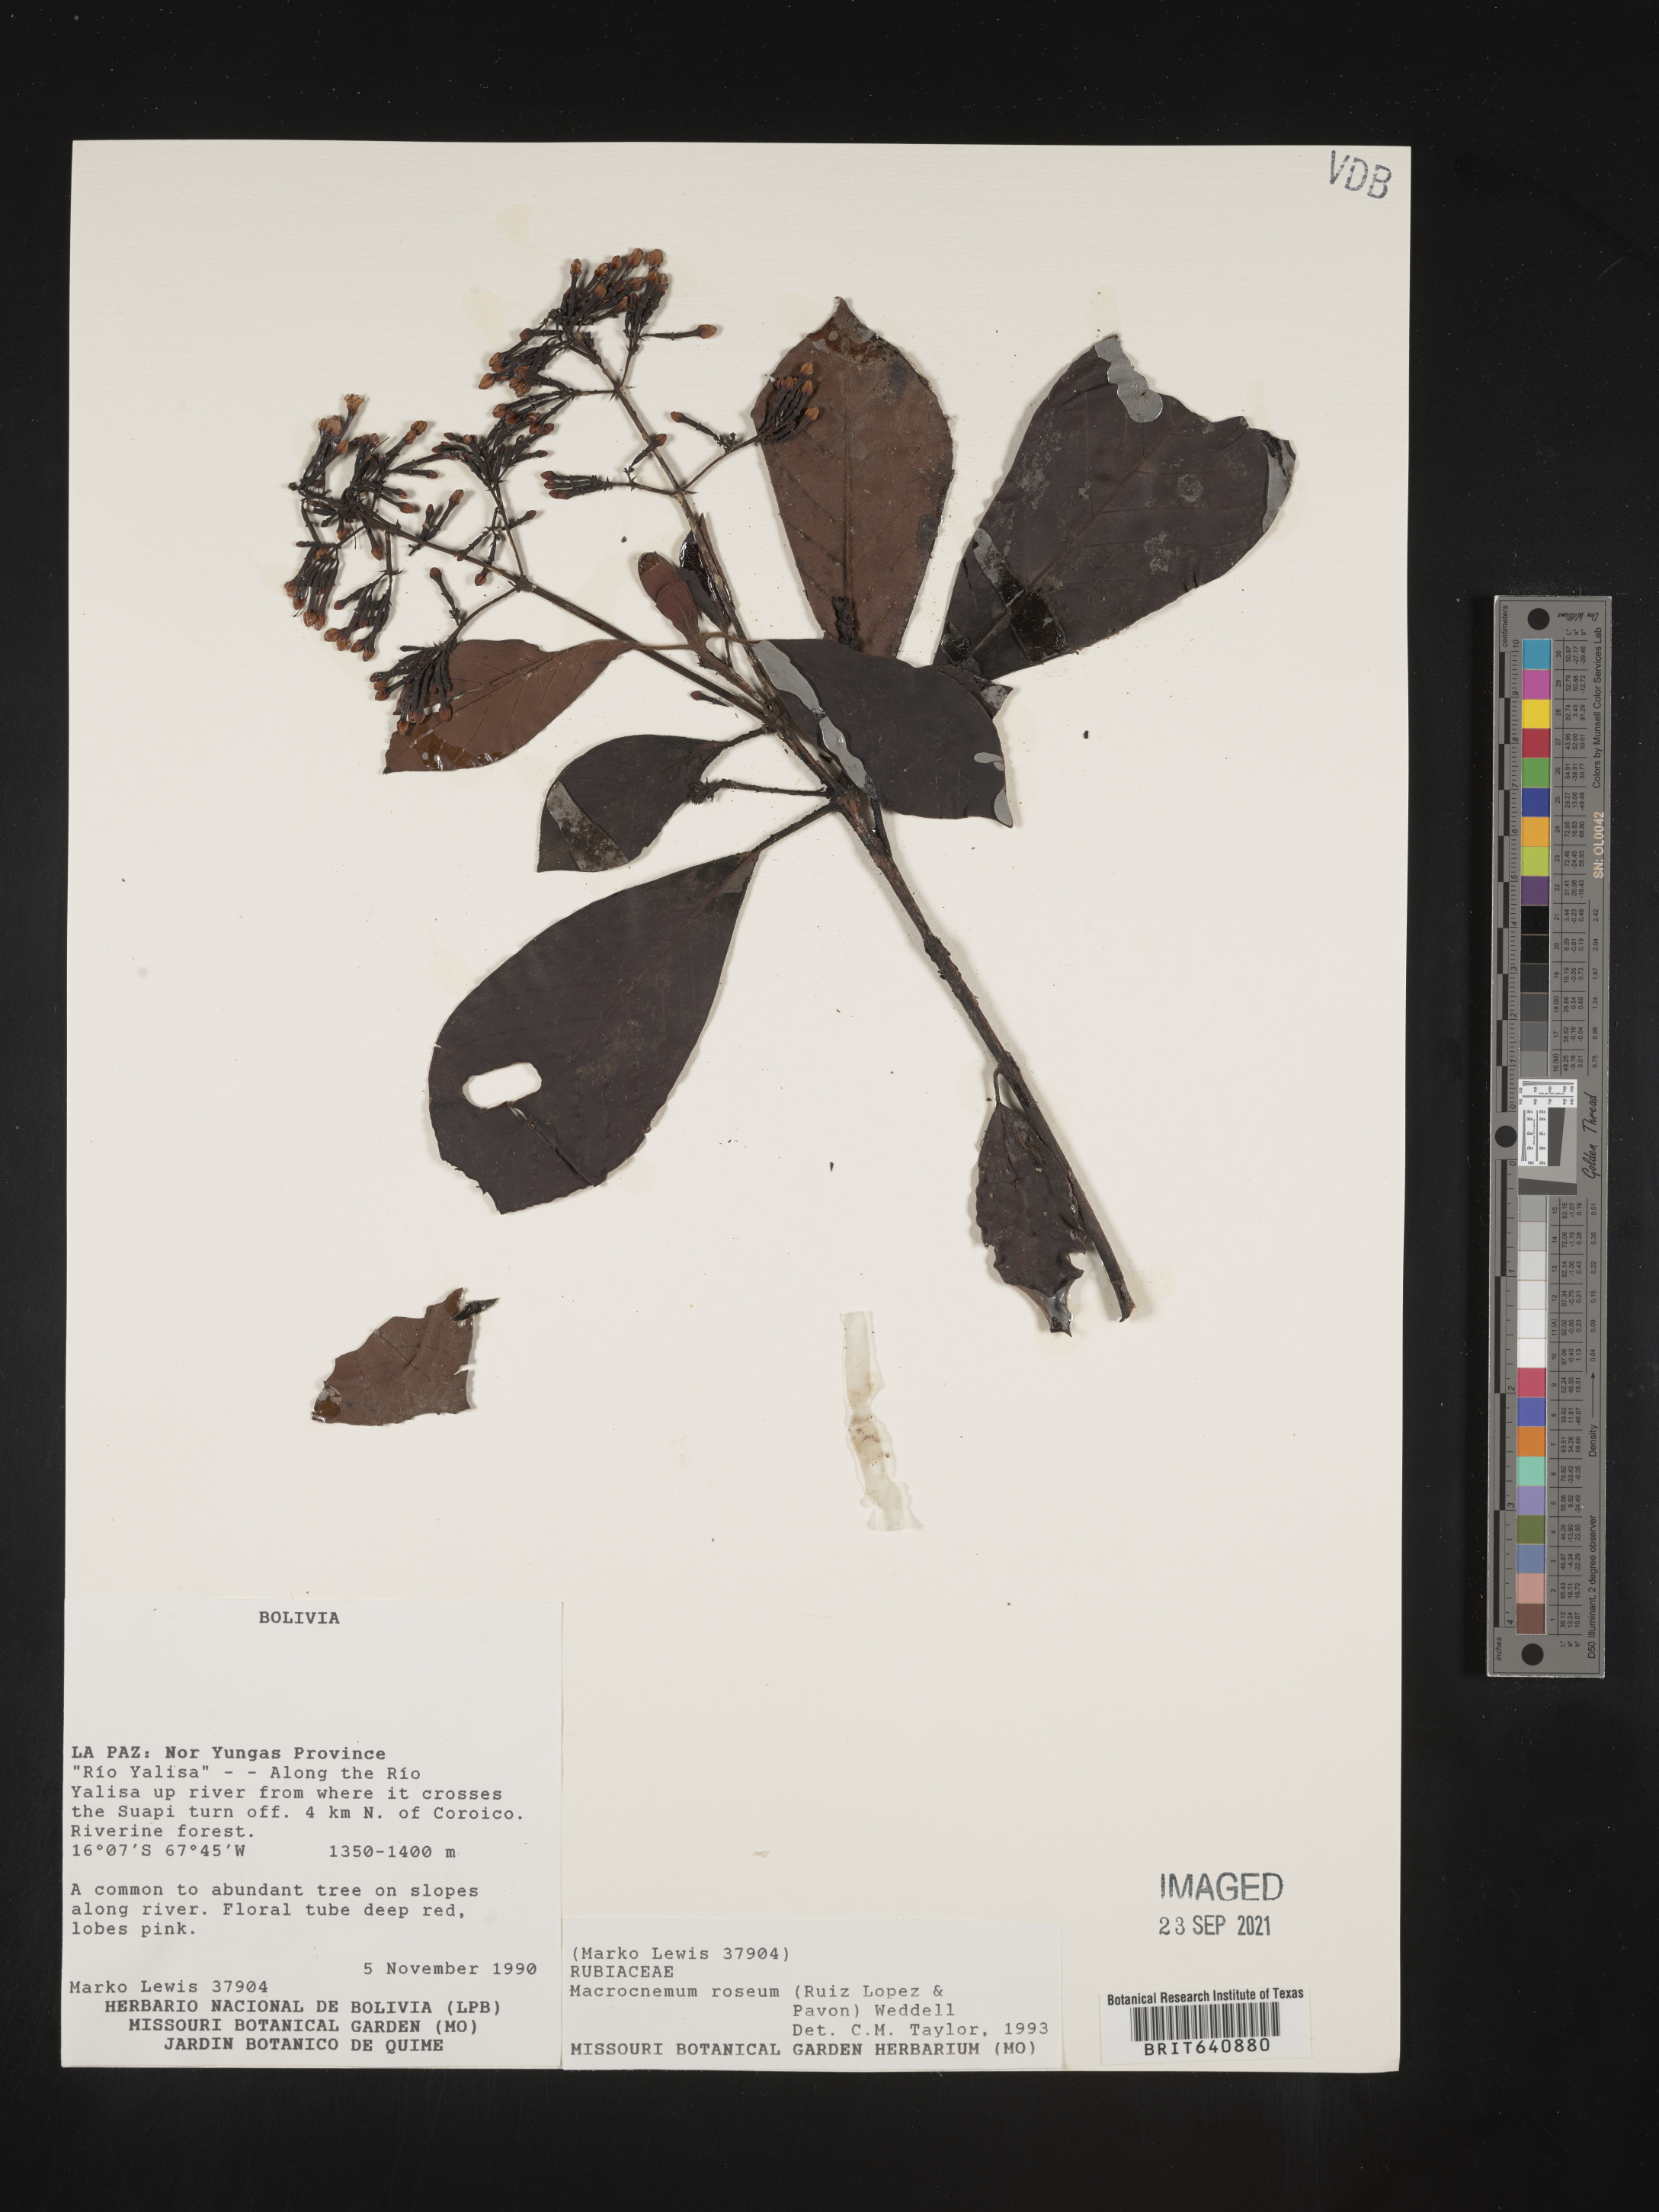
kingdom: Plantae
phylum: Tracheophyta
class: Magnoliopsida
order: Gentianales
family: Rubiaceae
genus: Macrocnemum
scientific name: Macrocnemum
